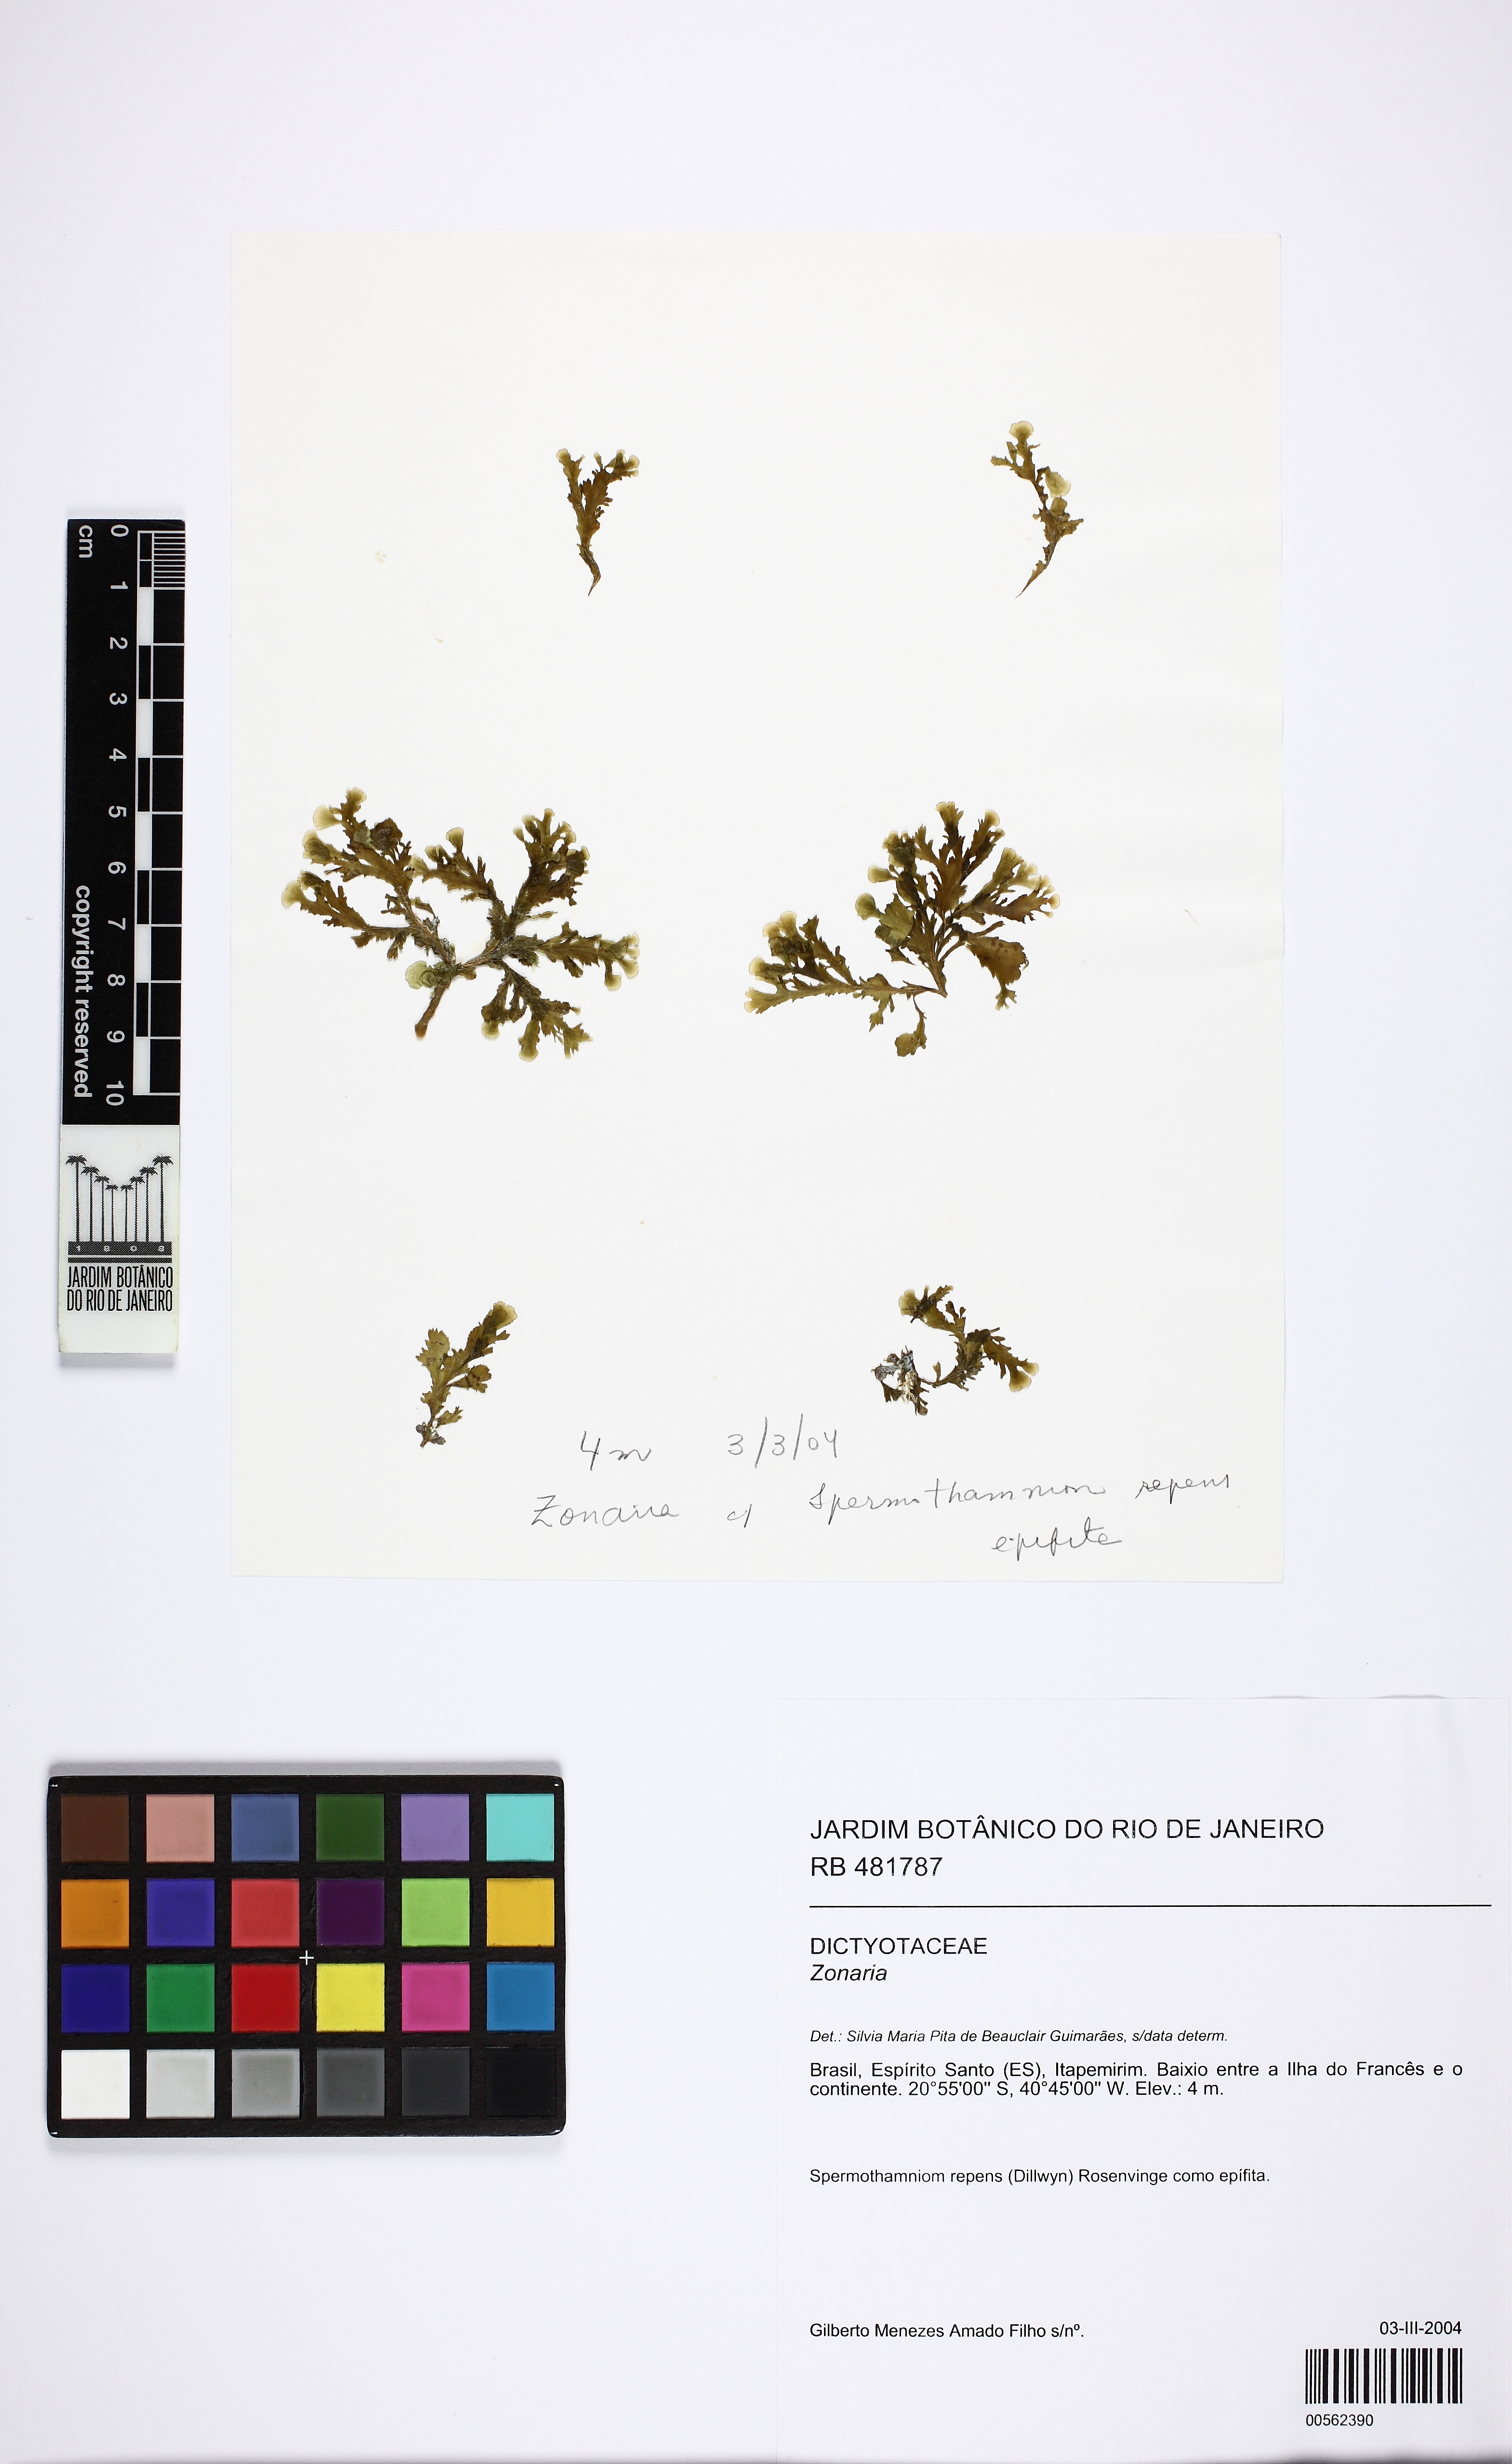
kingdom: Chromista
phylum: Ochrophyta
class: Phaeophyceae
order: Dictyotales
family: Dictyotaceae
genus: Zonaria
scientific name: Zonaria
